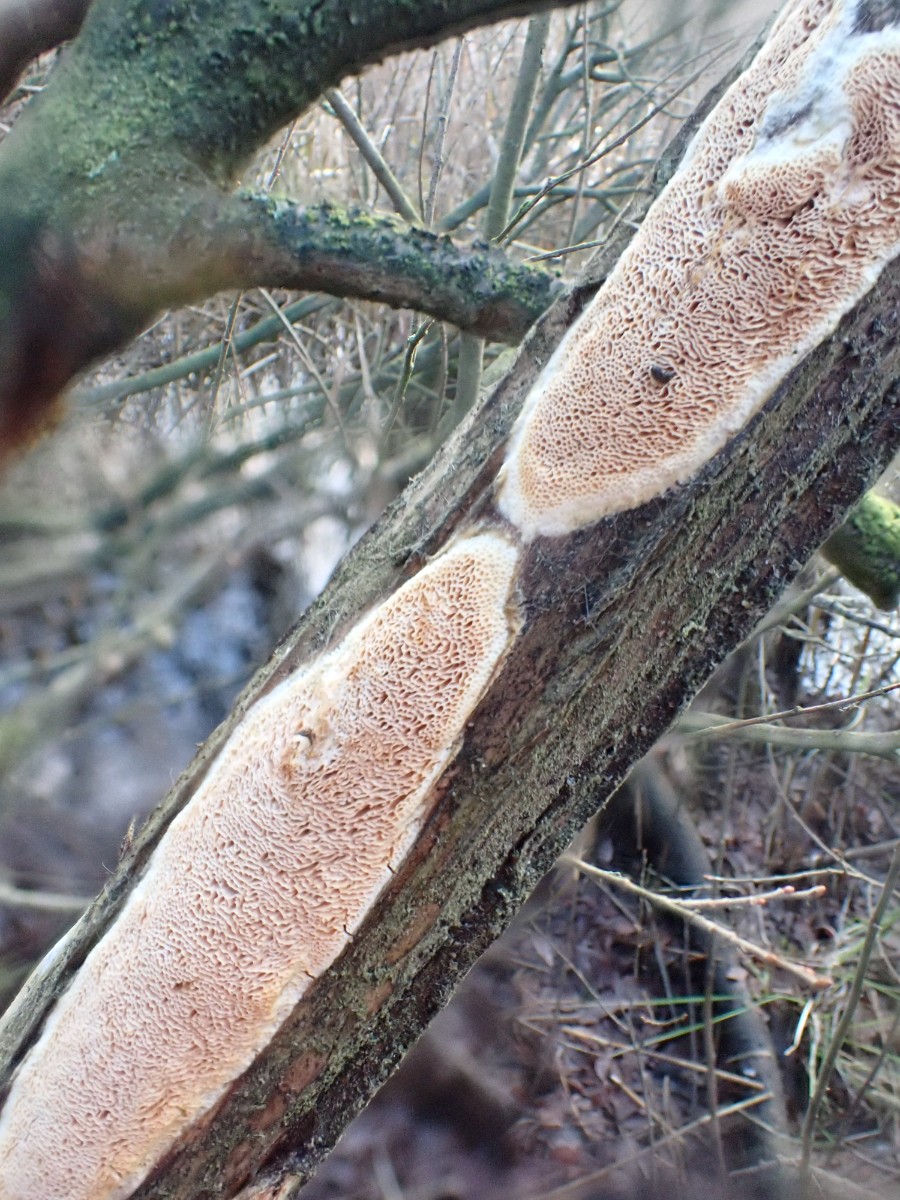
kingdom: Fungi
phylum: Basidiomycota
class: Agaricomycetes
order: Polyporales
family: Irpicaceae
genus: Resiniporus
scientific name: Resiniporus resinascens
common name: trist pastelporesvamp
